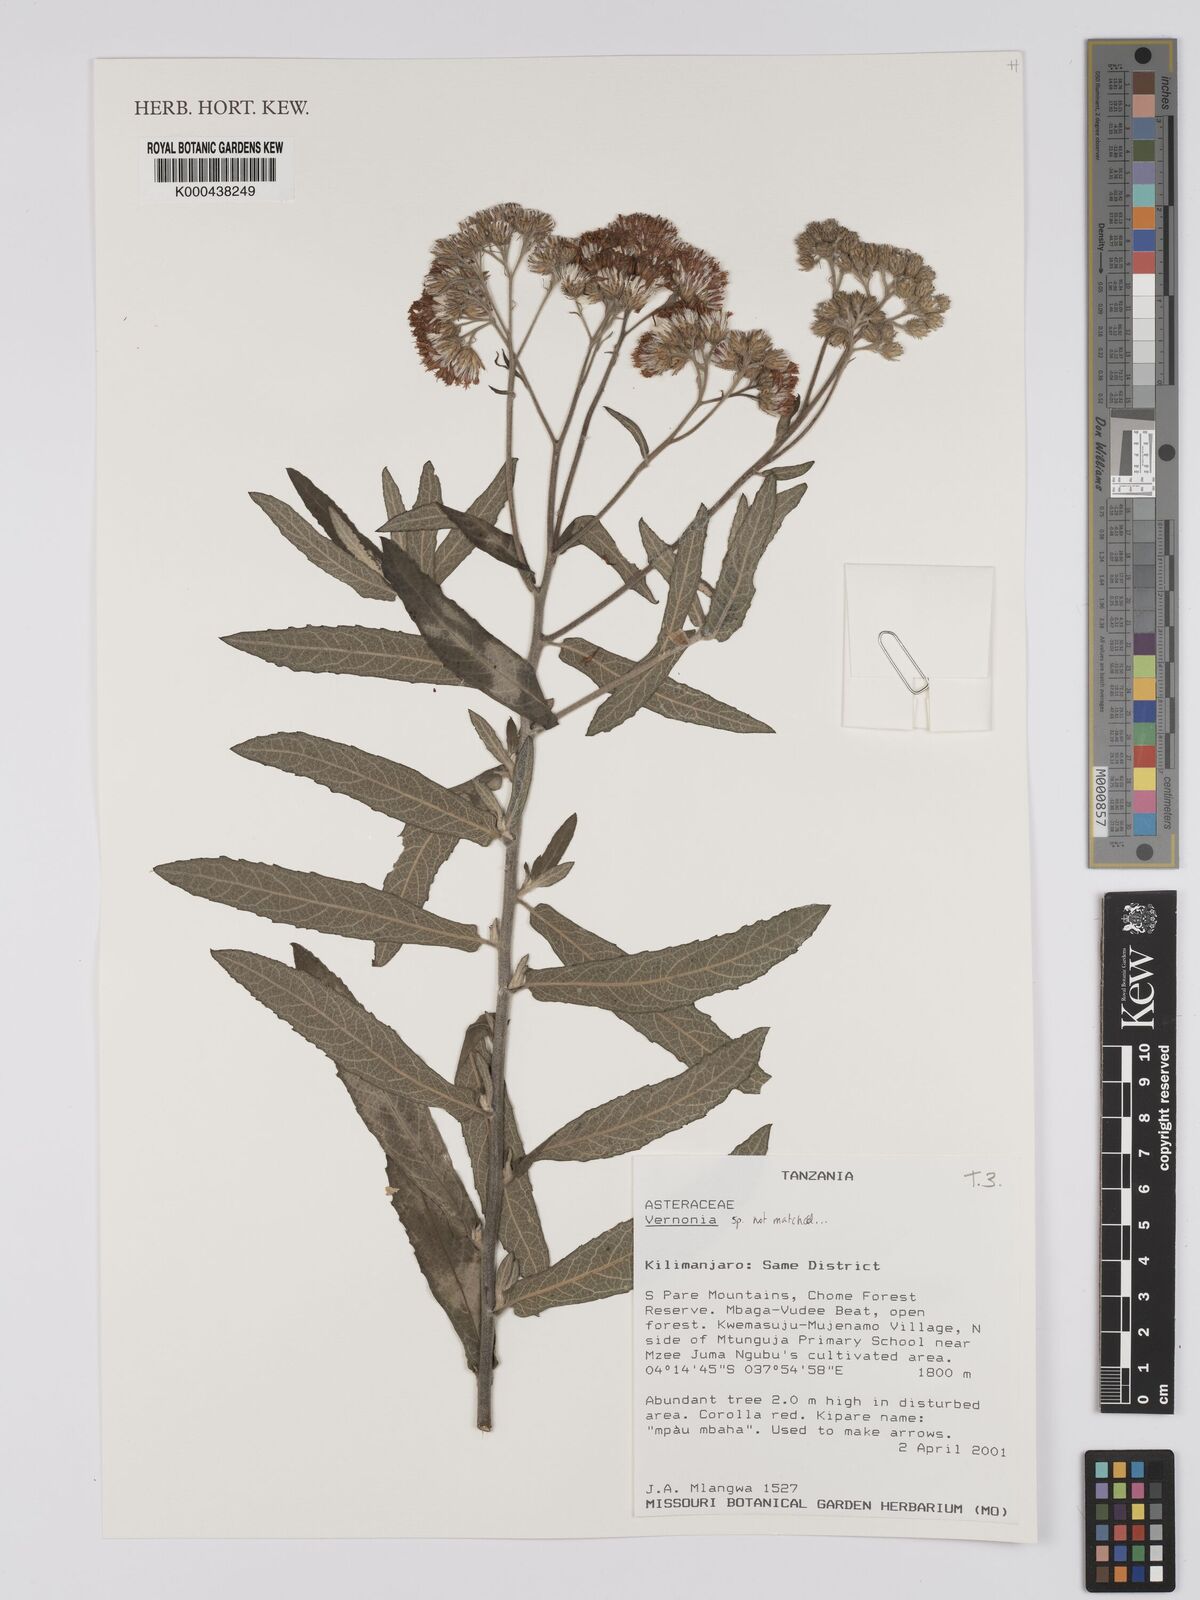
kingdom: Plantae
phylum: Tracheophyta
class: Magnoliopsida
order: Asterales
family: Asteraceae
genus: Vernonia
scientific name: Vernonia
